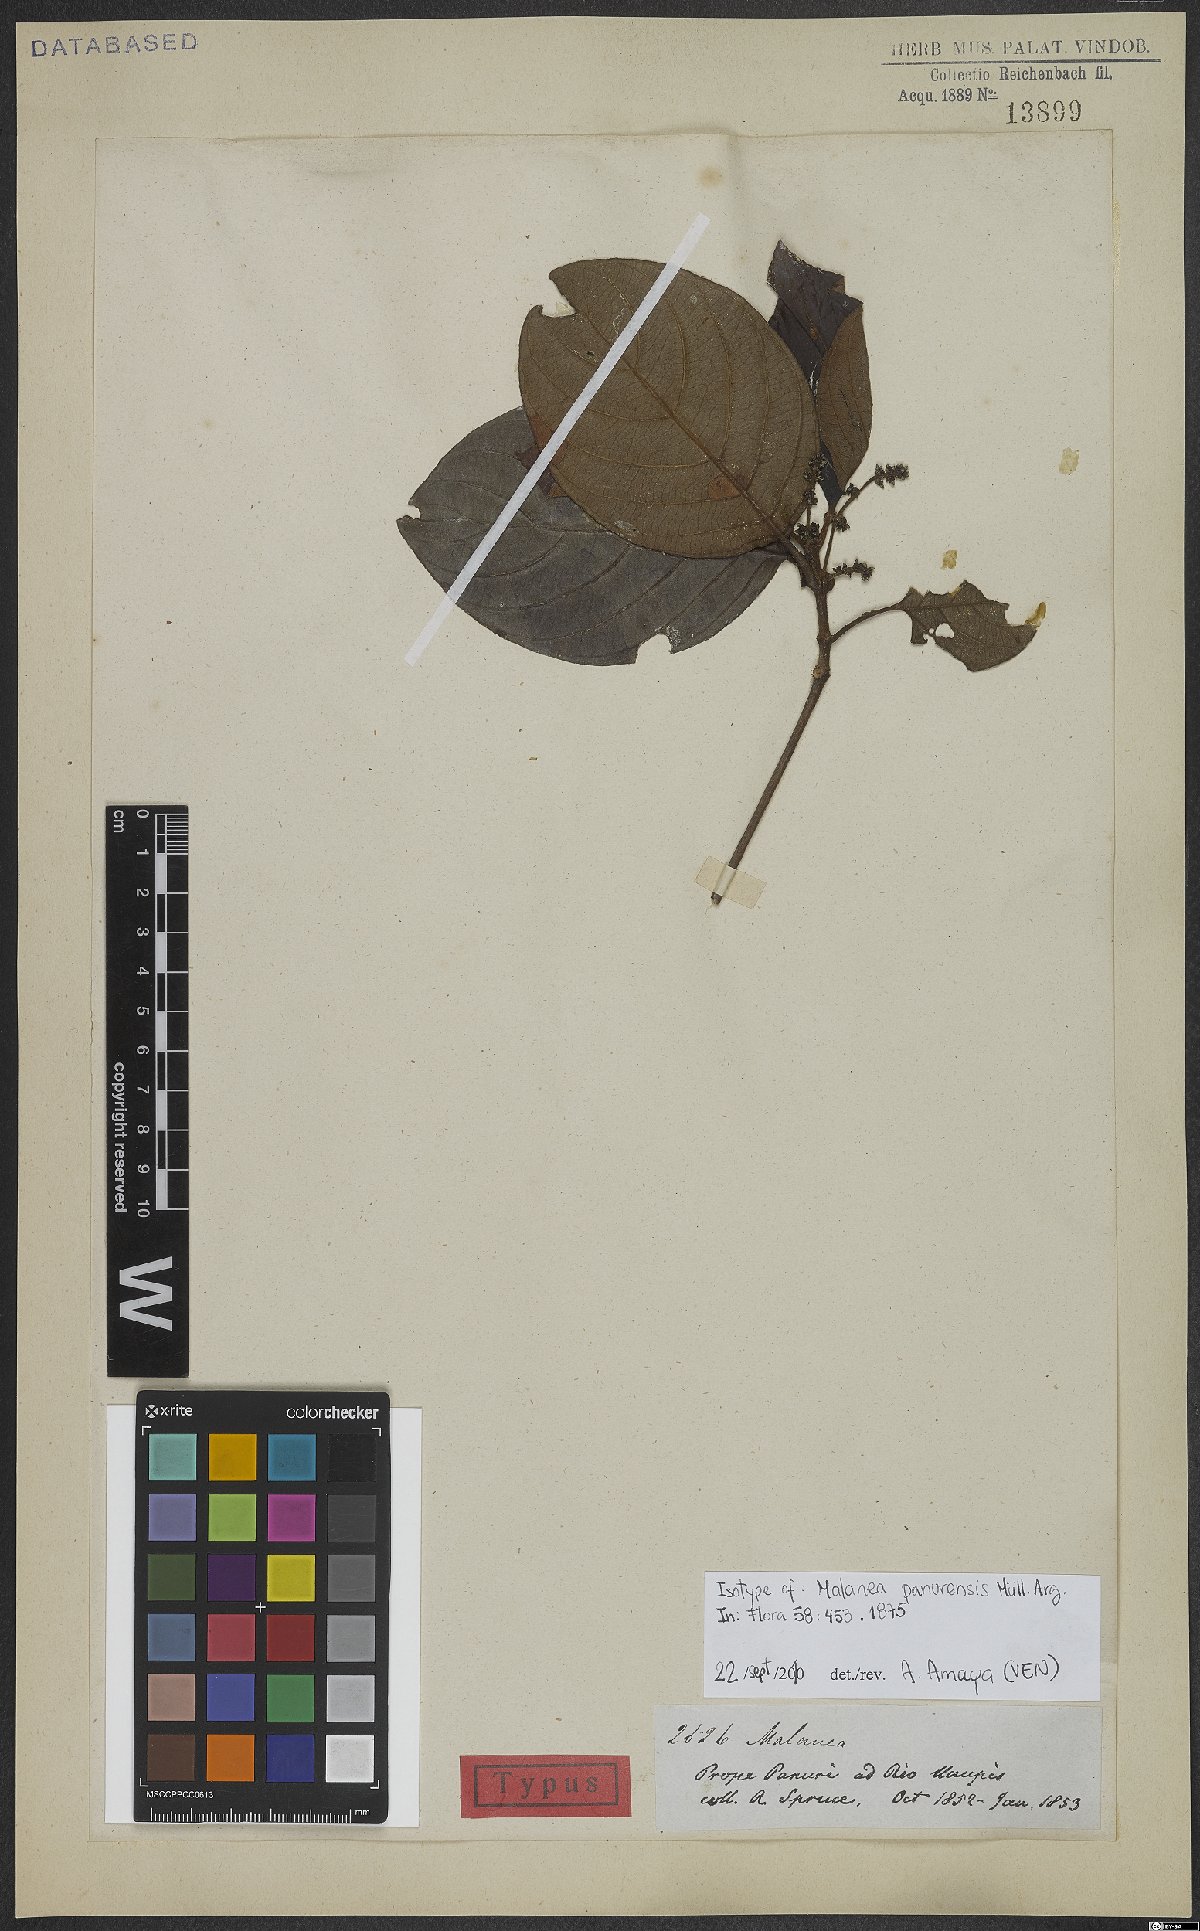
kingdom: Plantae
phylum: Tracheophyta
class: Magnoliopsida
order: Gentianales
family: Rubiaceae
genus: Malanea
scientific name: Malanea panurensis
